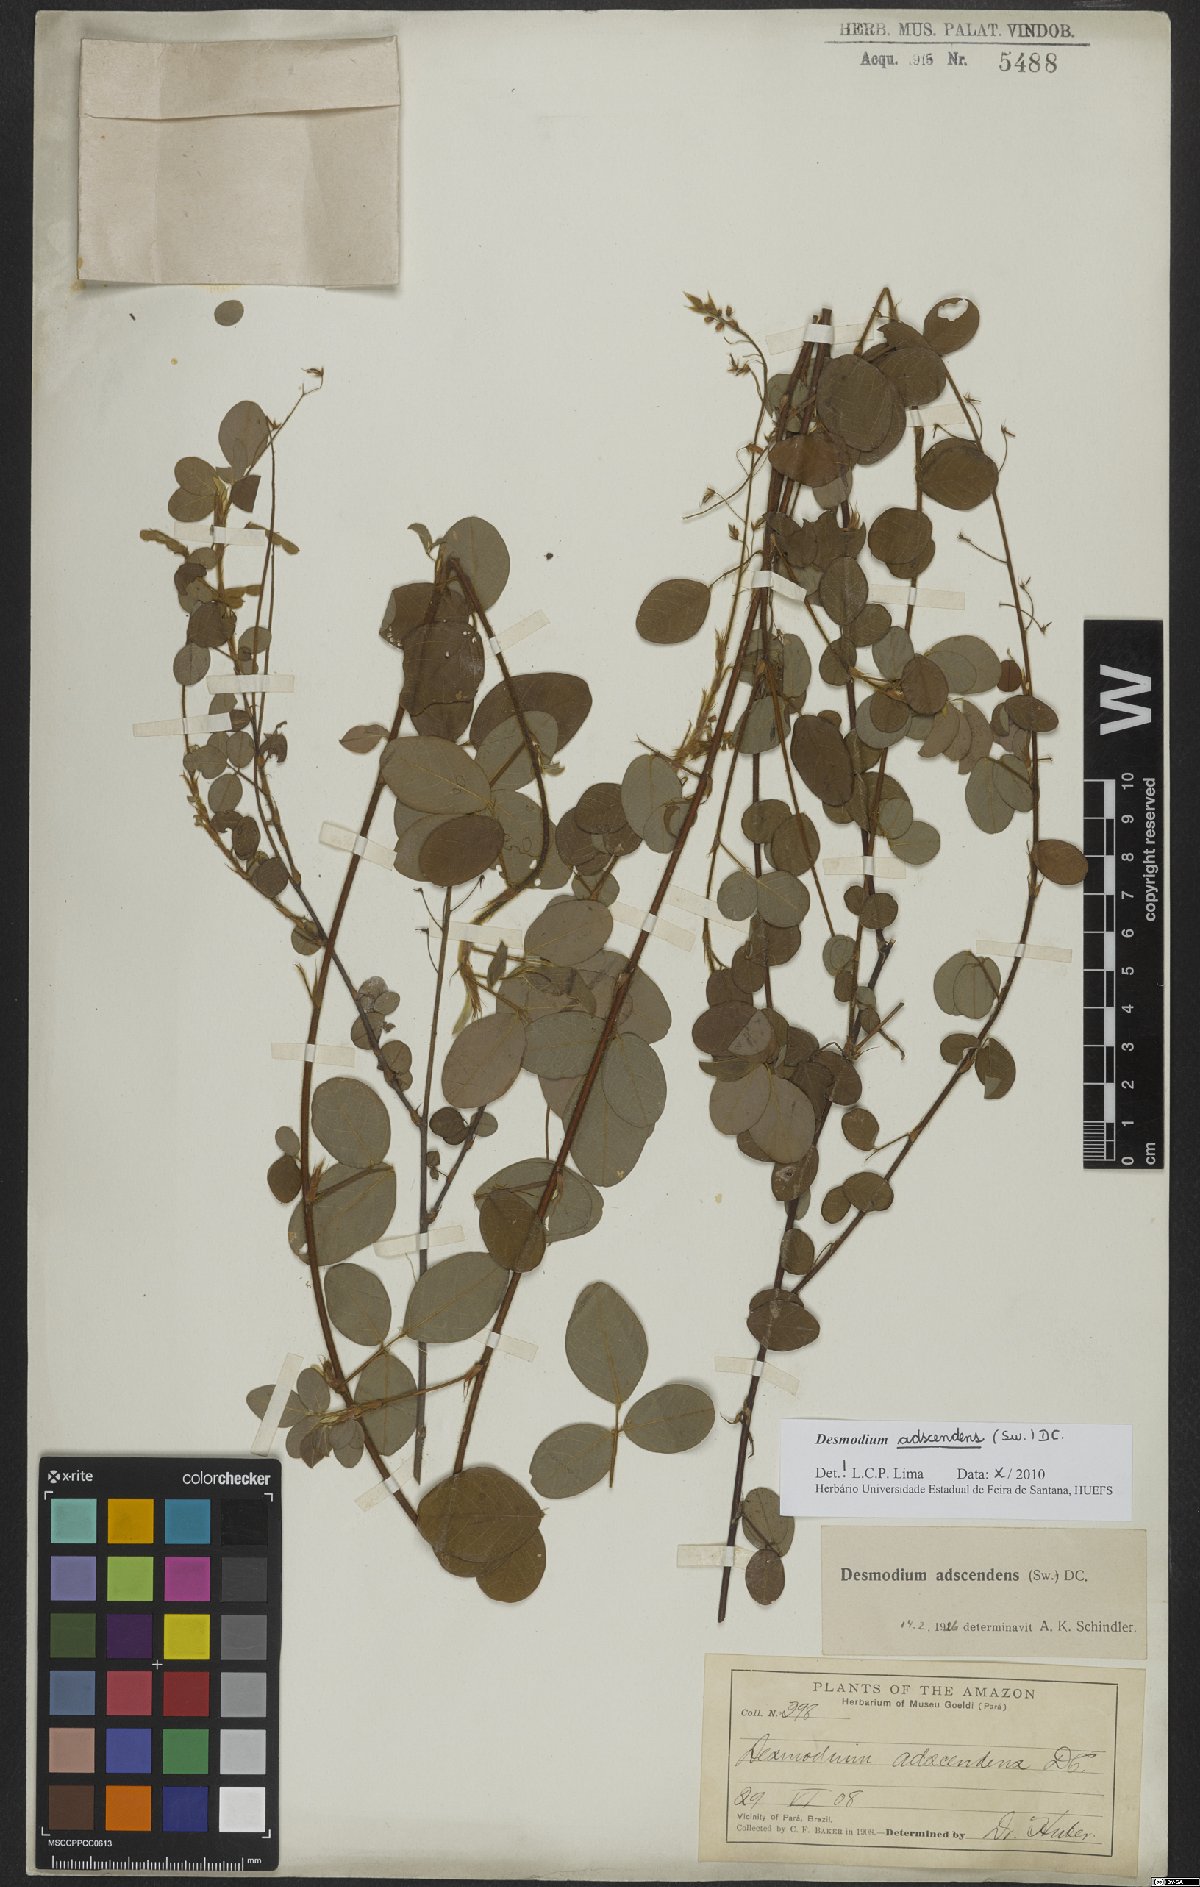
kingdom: Plantae
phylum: Tracheophyta
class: Magnoliopsida
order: Fabales
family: Fabaceae
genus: Grona
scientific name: Grona adscendens
